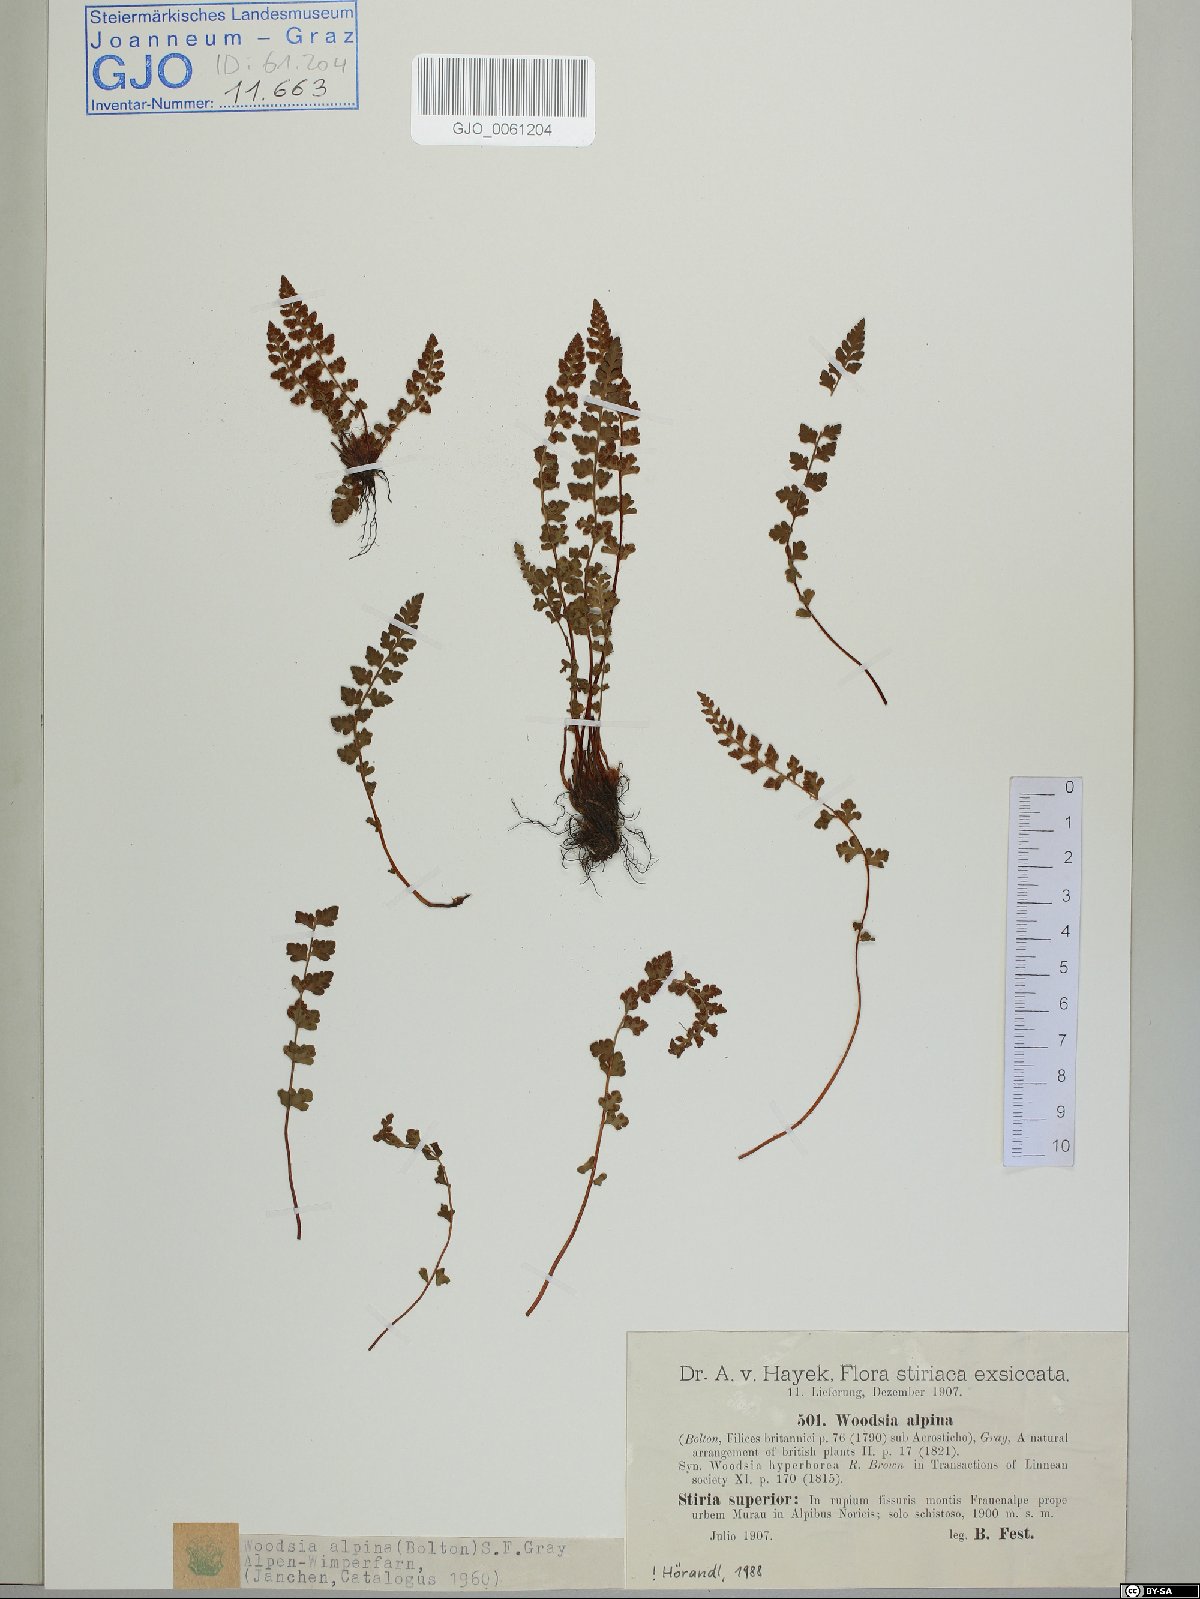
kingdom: Plantae
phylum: Tracheophyta
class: Polypodiopsida
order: Polypodiales
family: Woodsiaceae
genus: Woodsia
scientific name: Woodsia alpina
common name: Alpine woodsia
